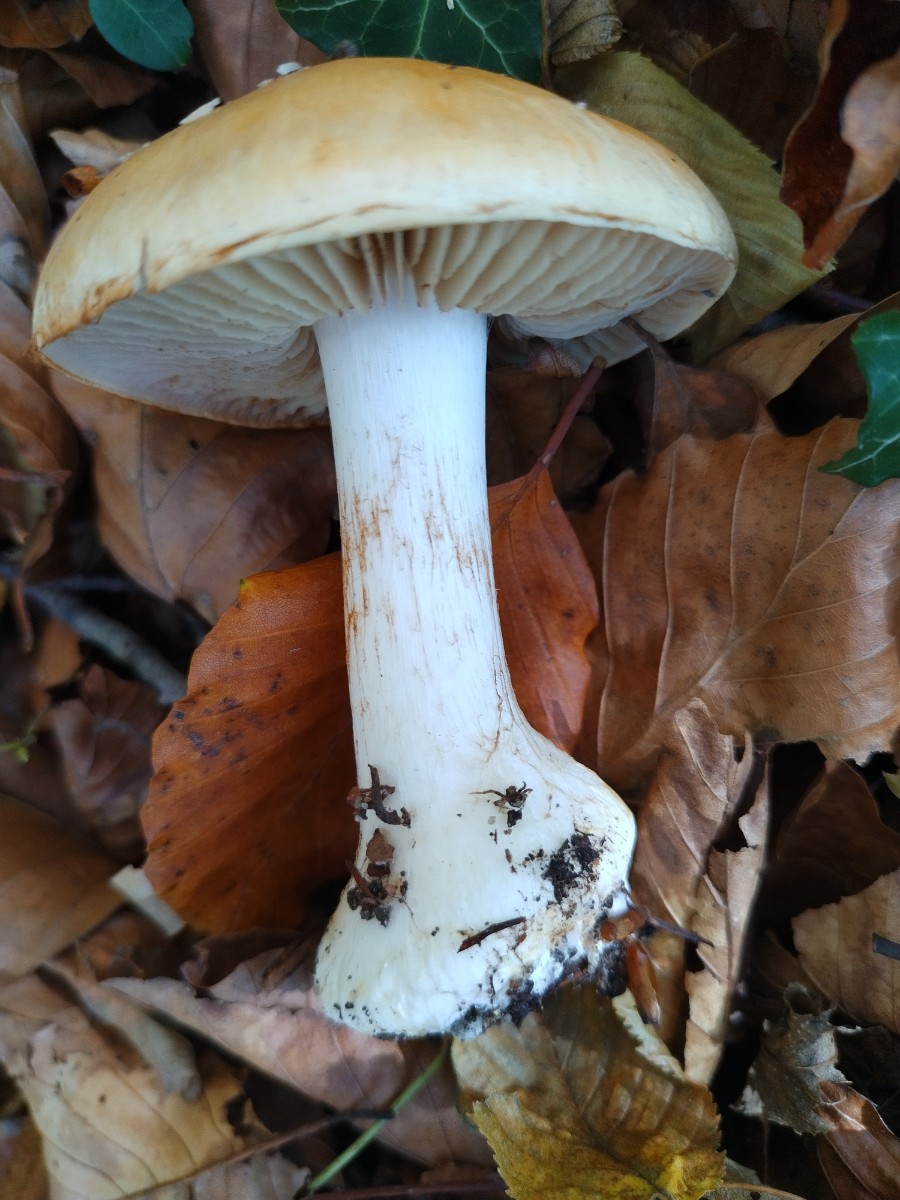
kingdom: Fungi
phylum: Basidiomycota
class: Agaricomycetes
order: Agaricales
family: Cortinariaceae
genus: Cortinarius
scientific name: Cortinarius
